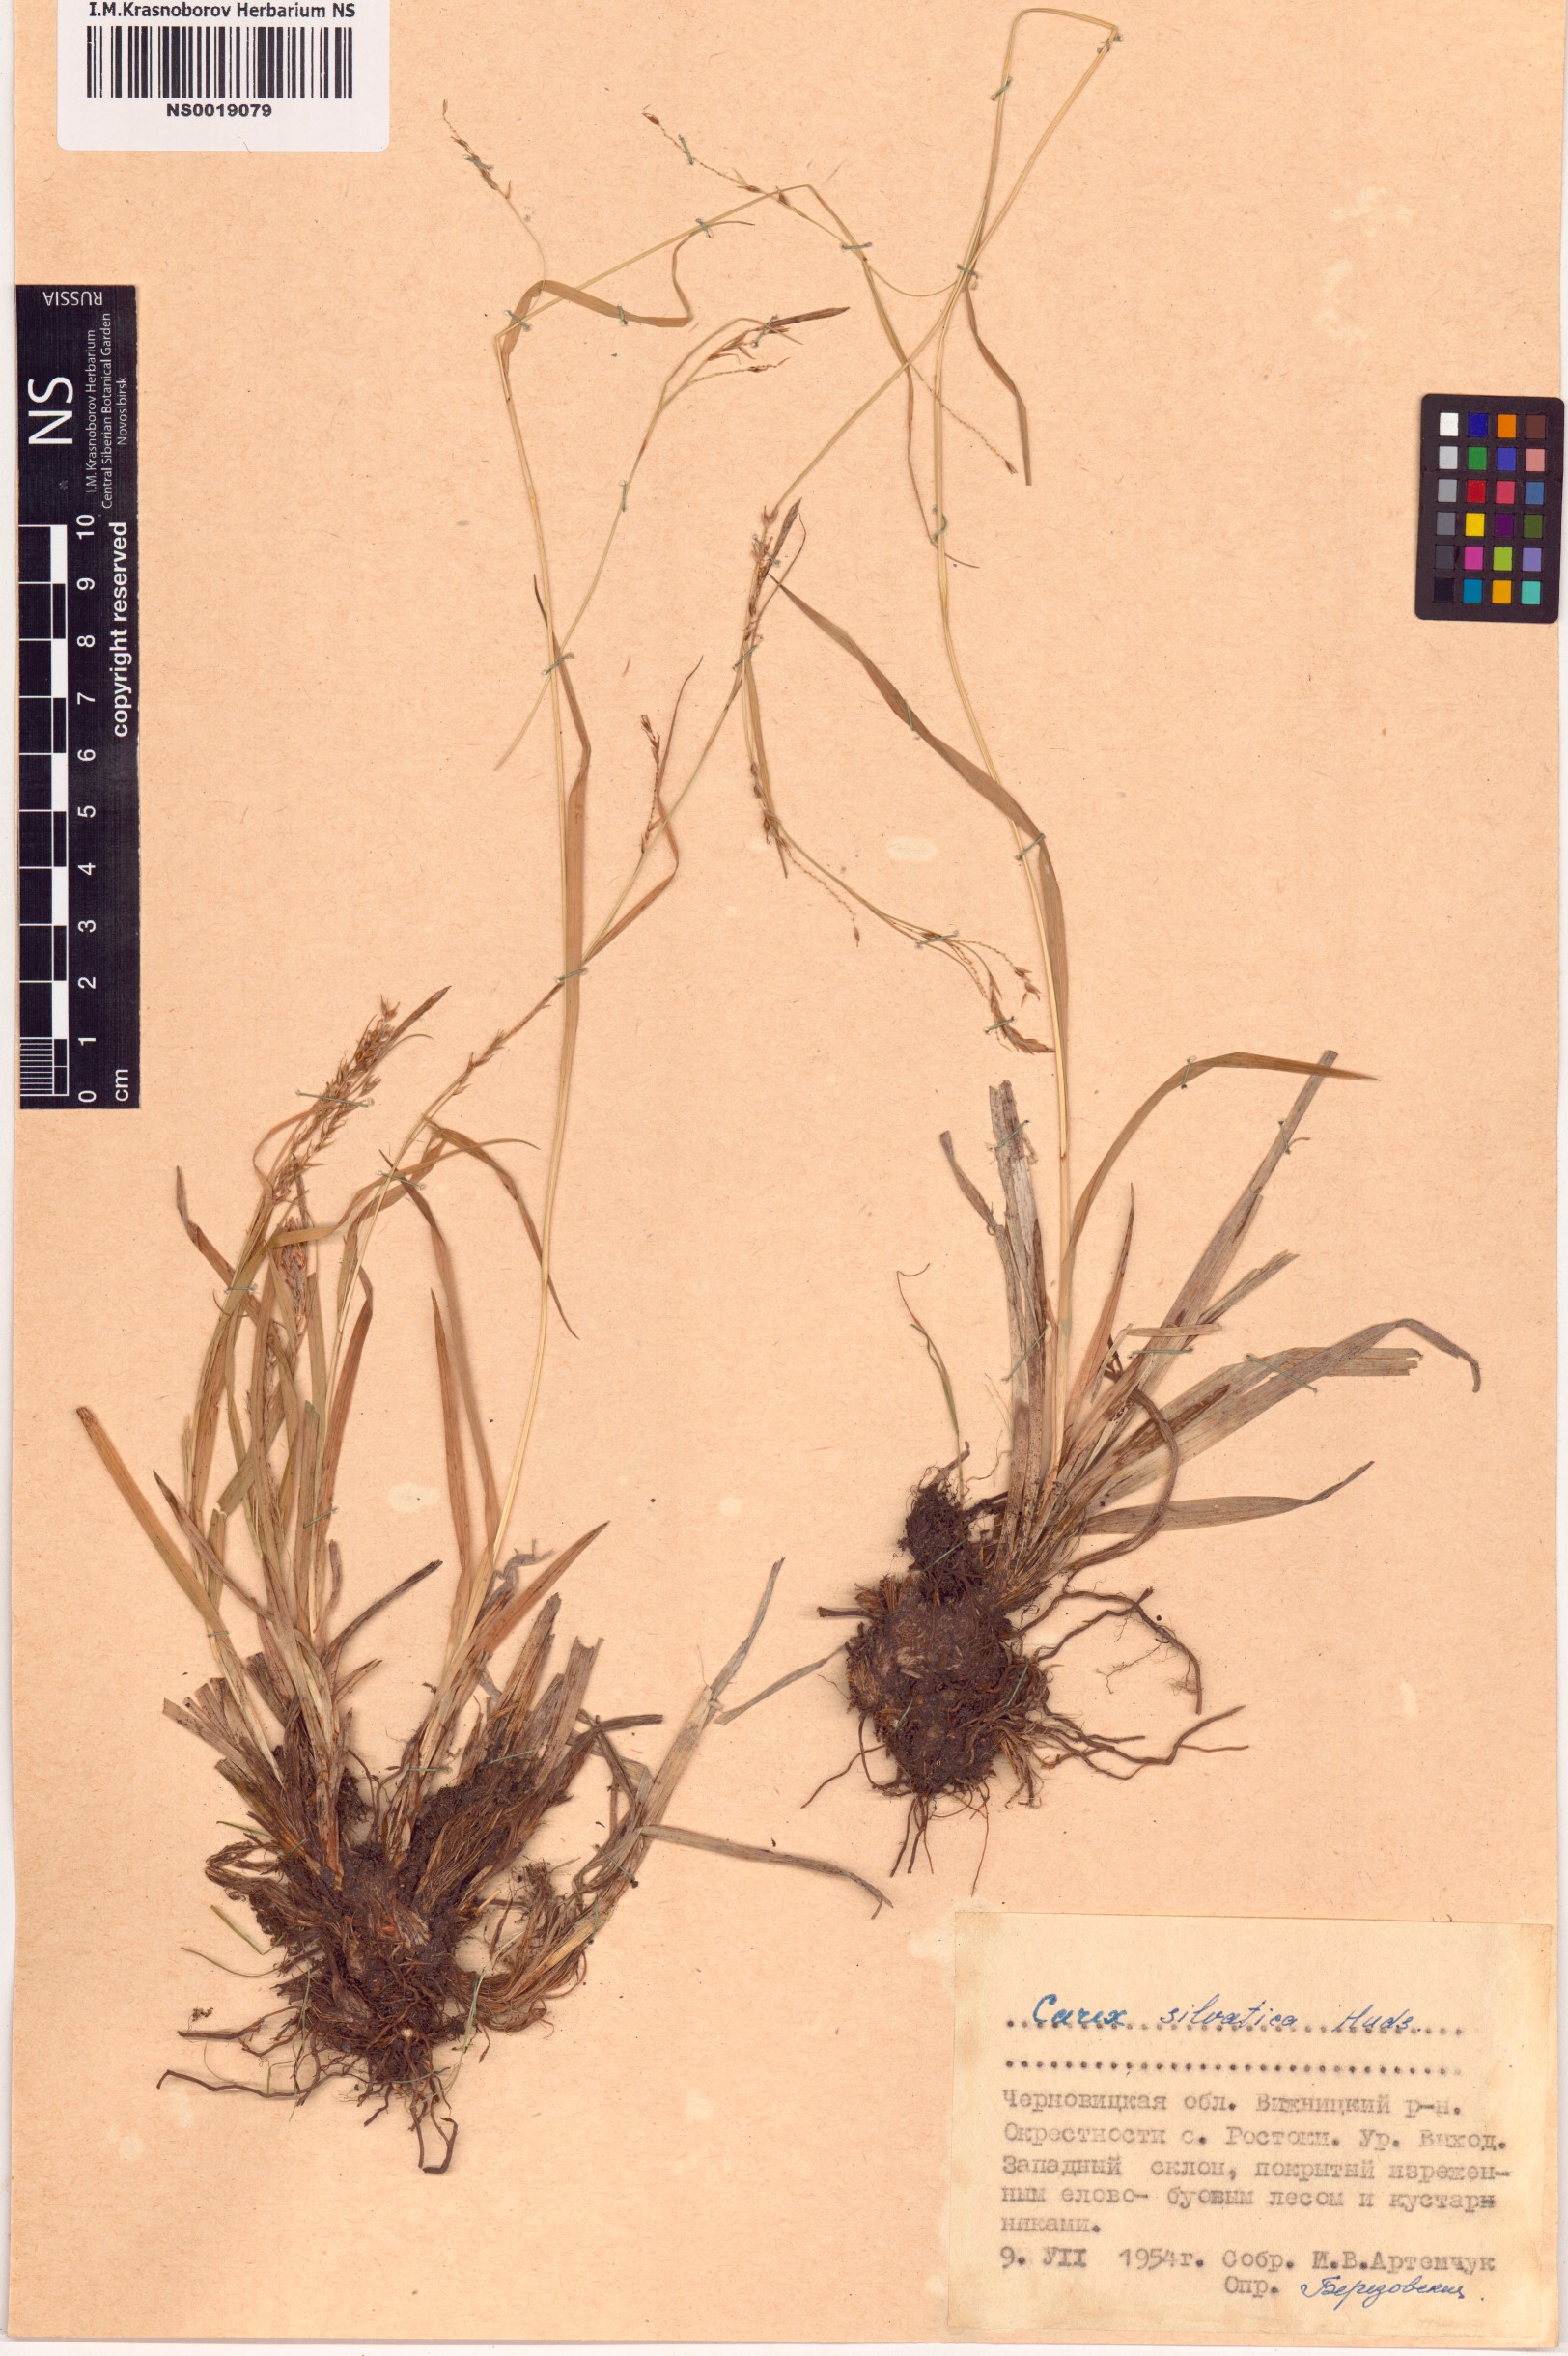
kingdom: Plantae
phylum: Tracheophyta
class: Liliopsida
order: Poales
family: Cyperaceae
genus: Carex
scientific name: Carex sylvatica
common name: Wood-sedge
